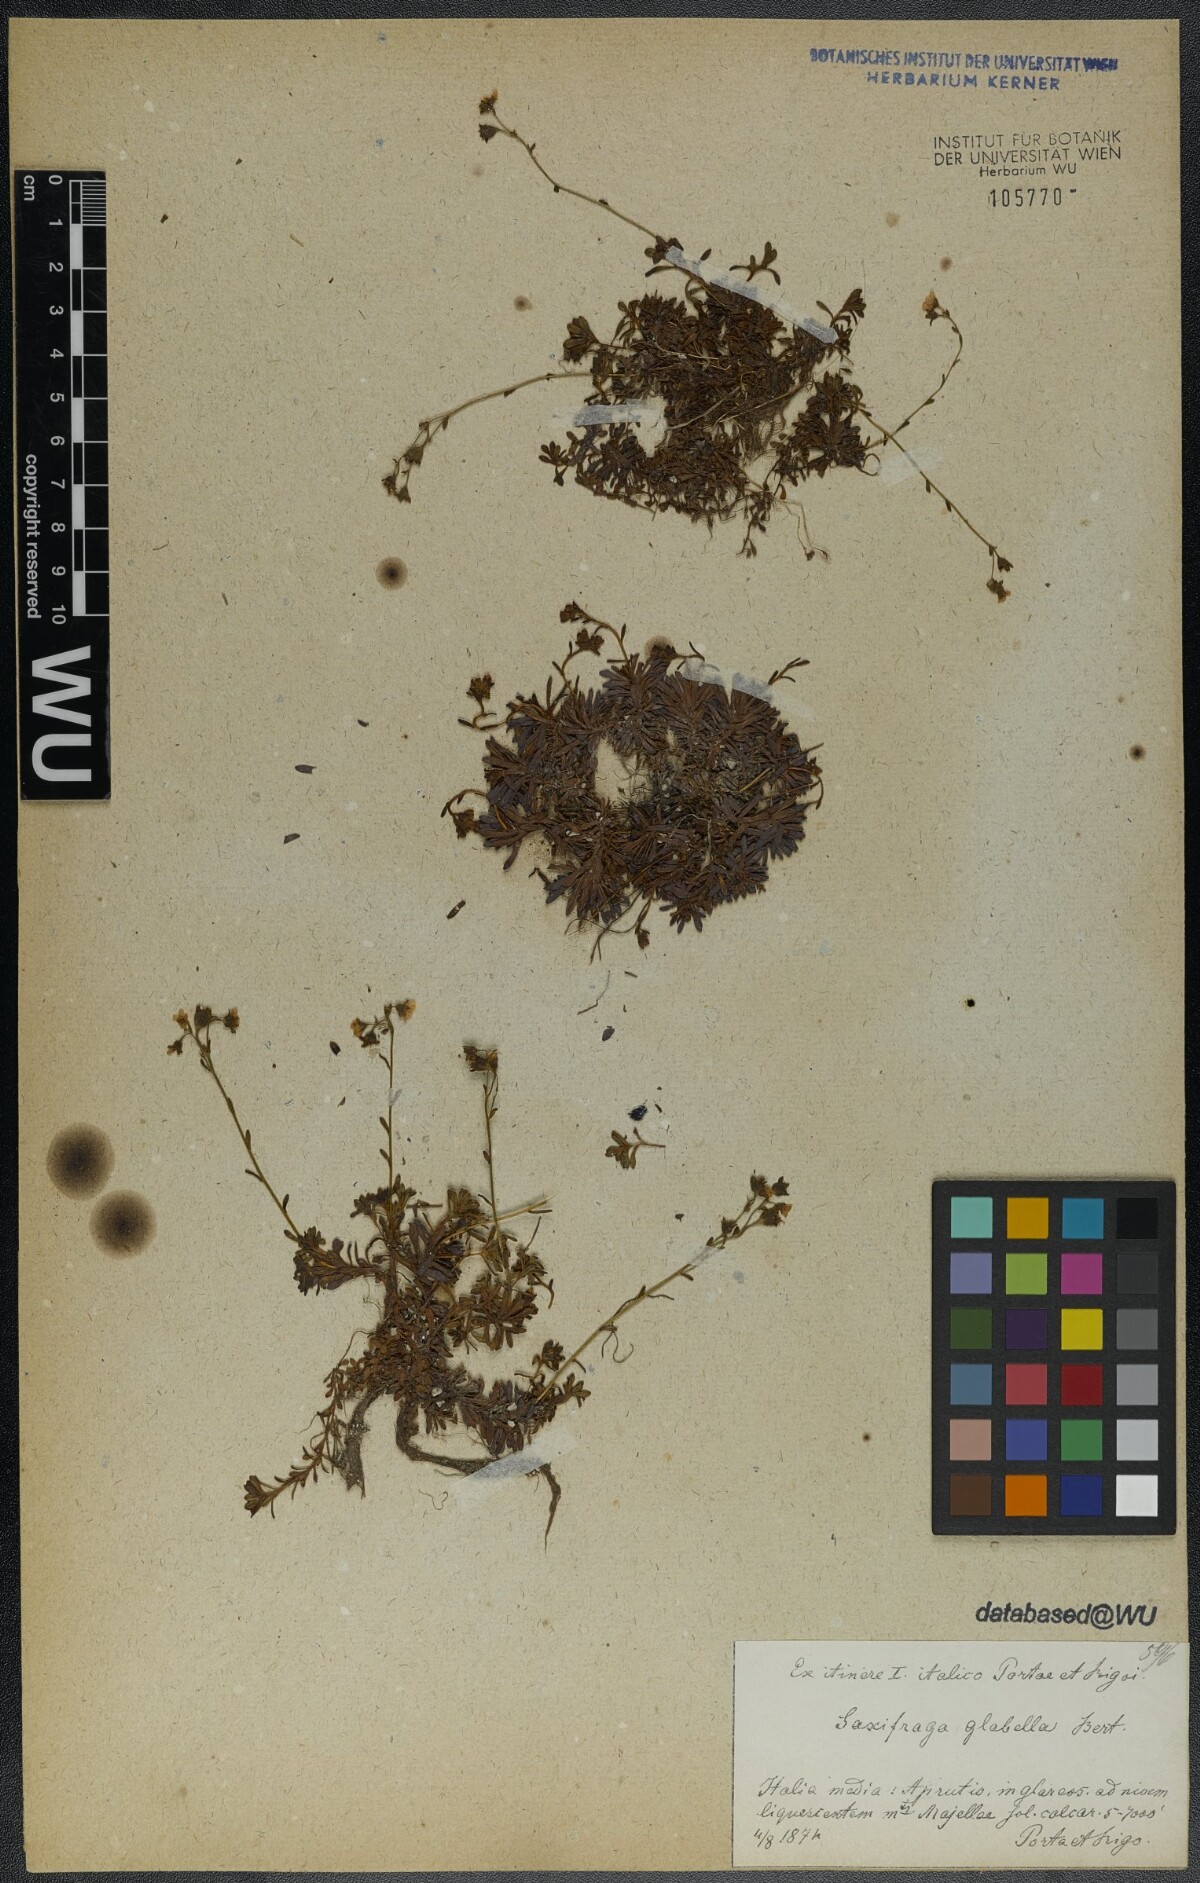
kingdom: Plantae
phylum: Tracheophyta
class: Magnoliopsida
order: Saxifragales
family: Saxifragaceae
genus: Saxifraga
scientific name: Saxifraga glabella
